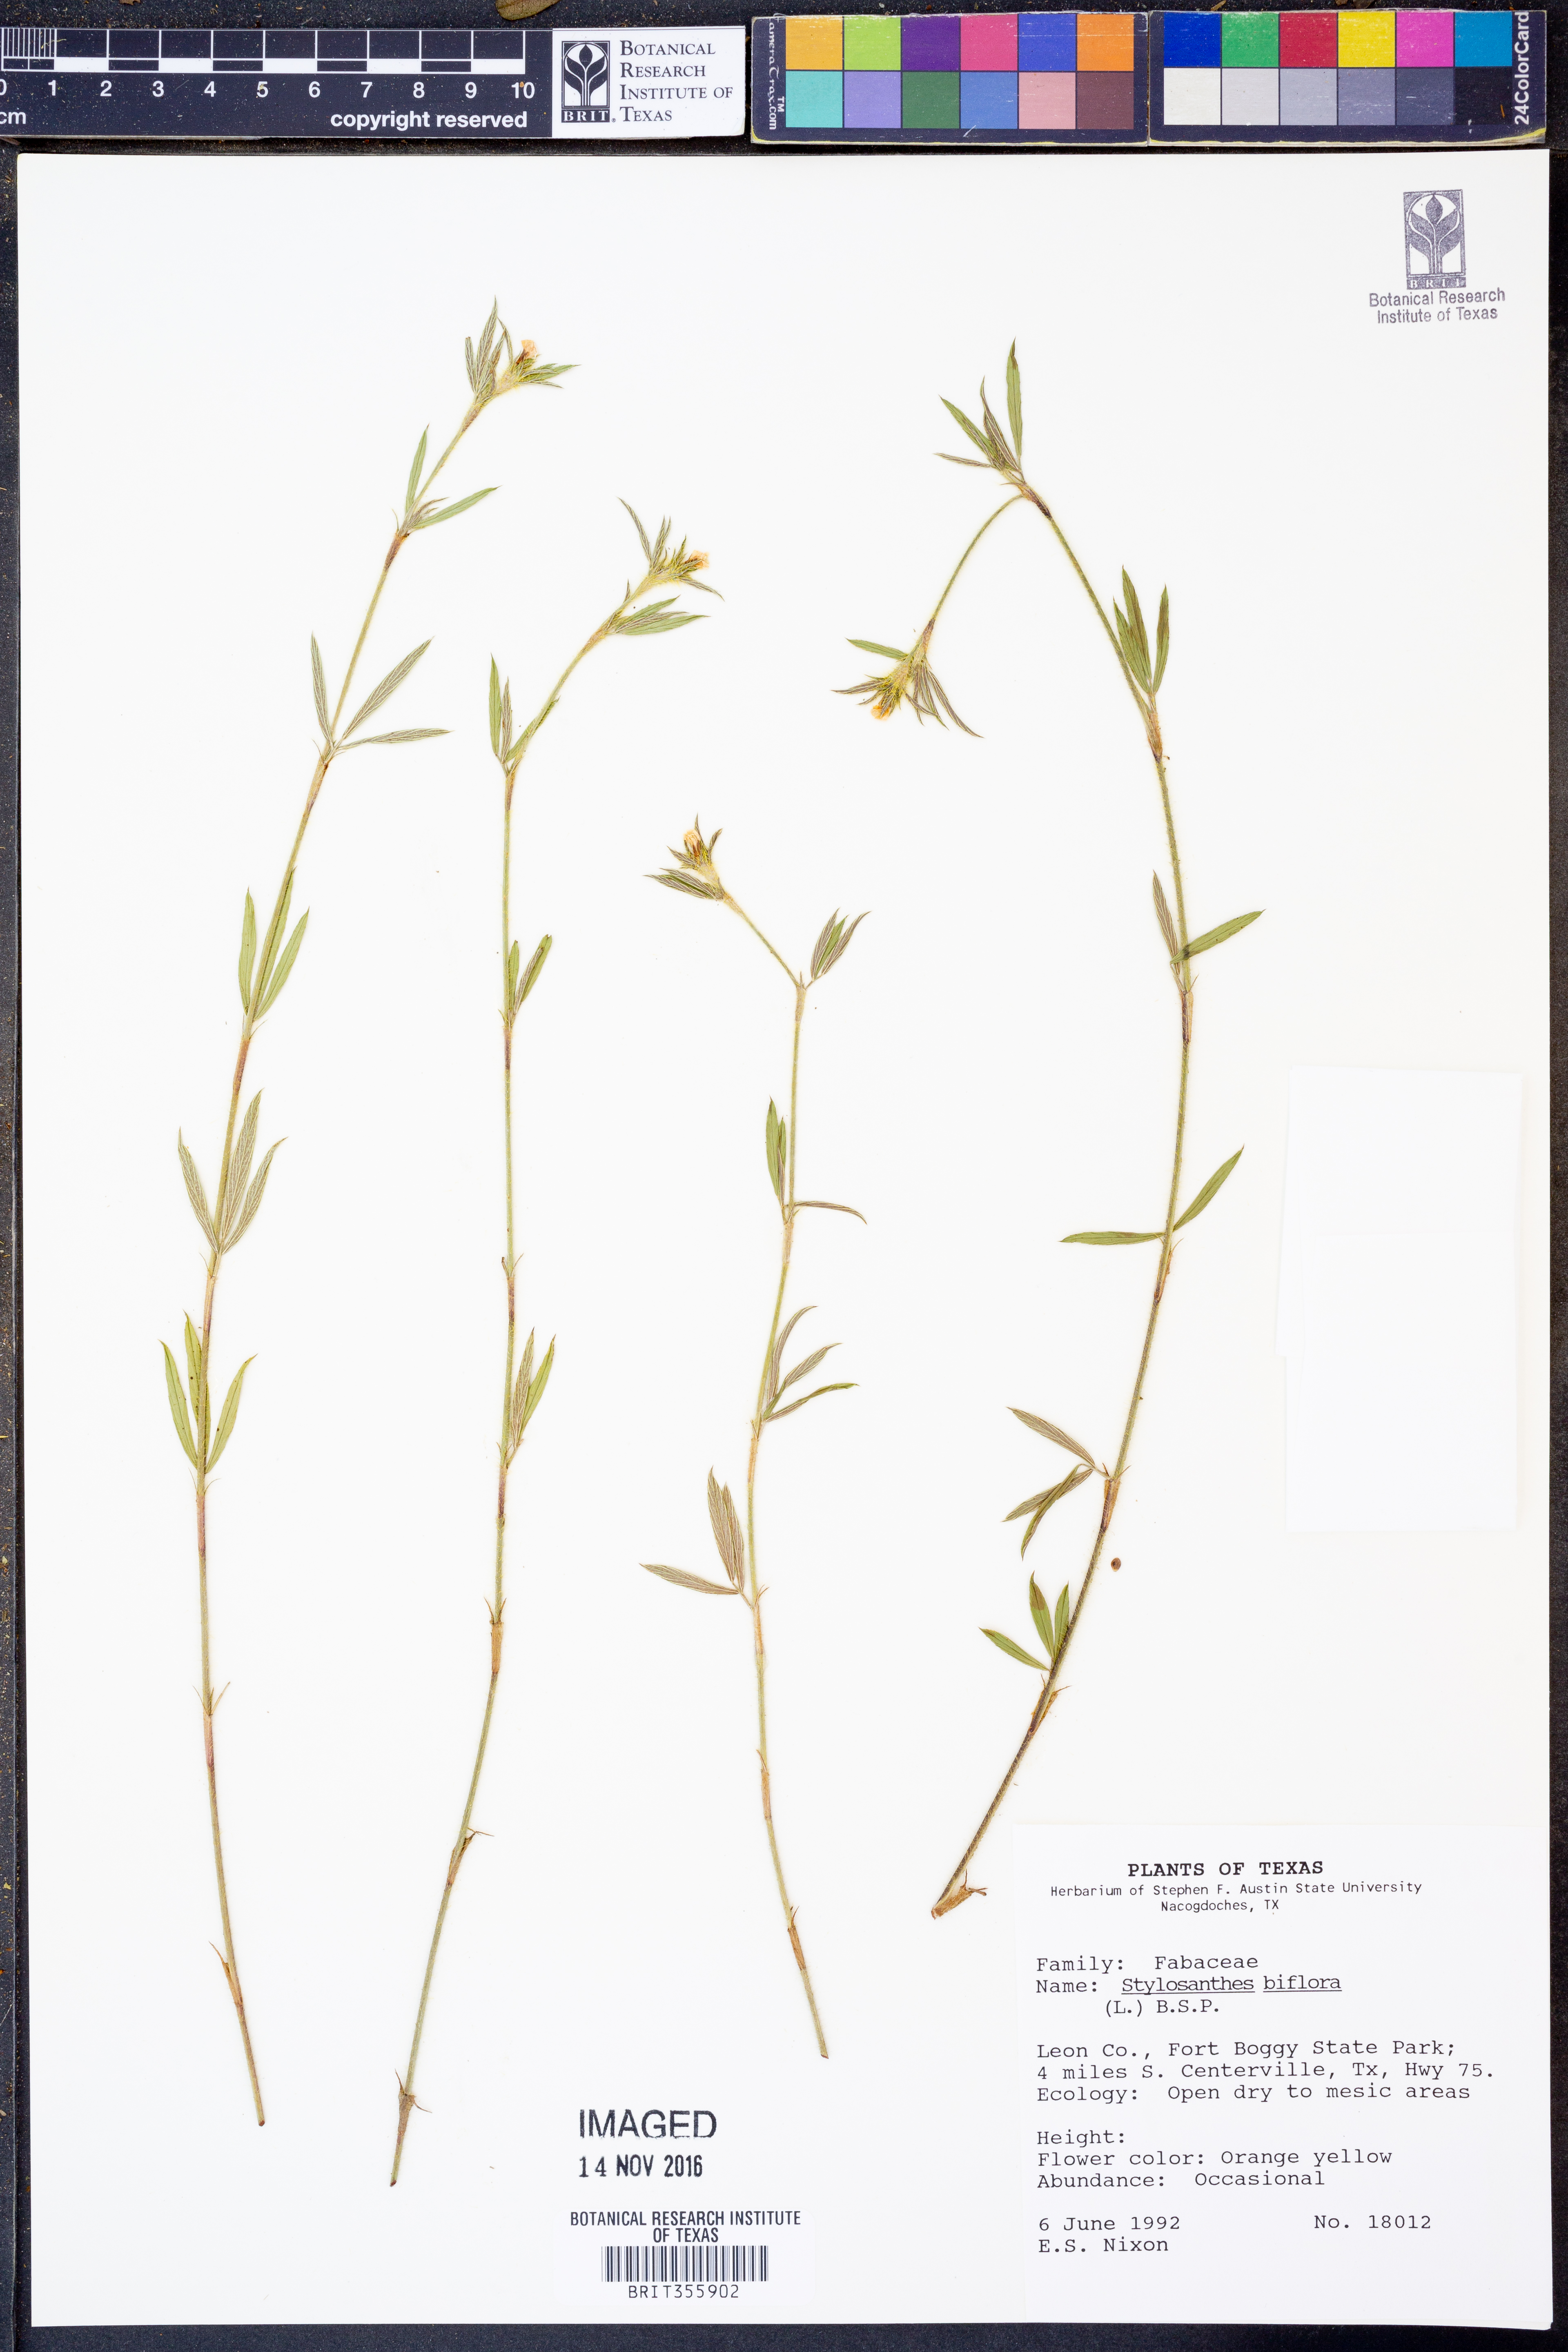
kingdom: Plantae
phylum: Tracheophyta
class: Magnoliopsida
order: Fabales
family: Fabaceae
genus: Stylosanthes
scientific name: Stylosanthes biflora
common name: Two-flower pencil-flower
